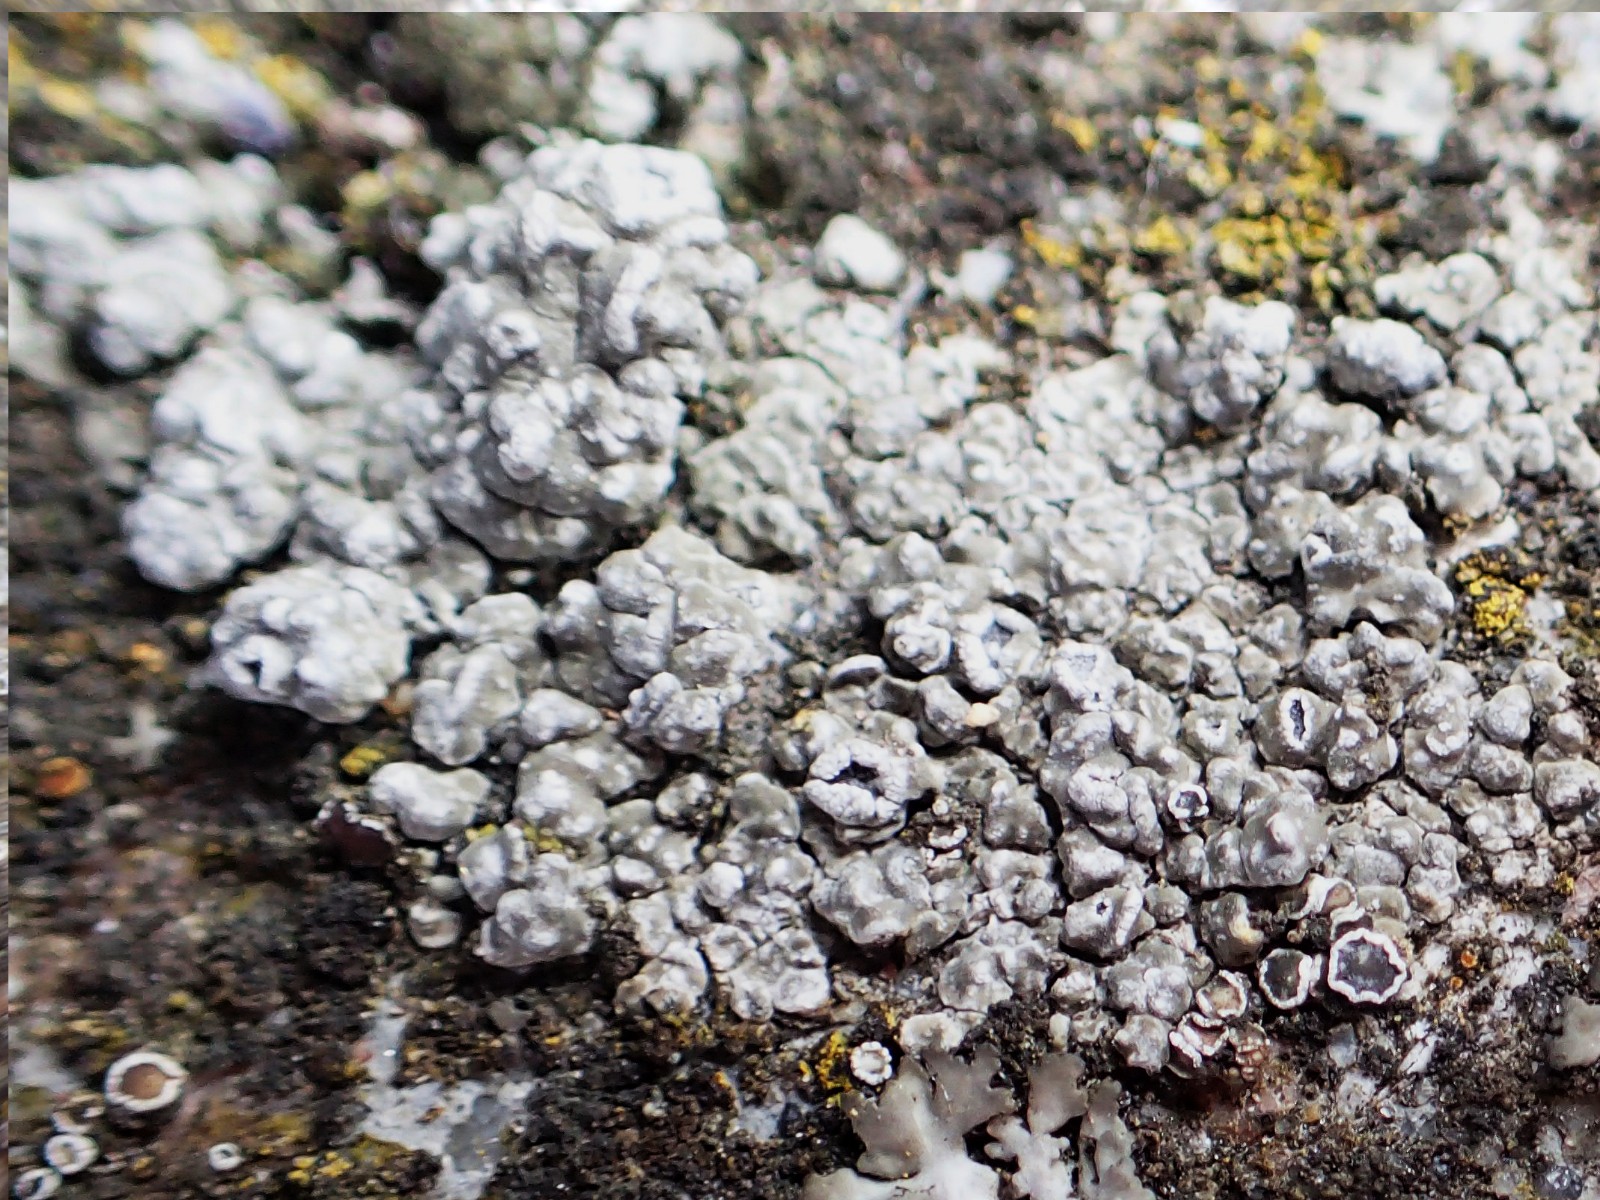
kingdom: Fungi
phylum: Ascomycota
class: Lecanoromycetes
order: Pertusariales
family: Megasporaceae
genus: Circinaria
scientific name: Circinaria contorta
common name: indviklet hulskivelav
